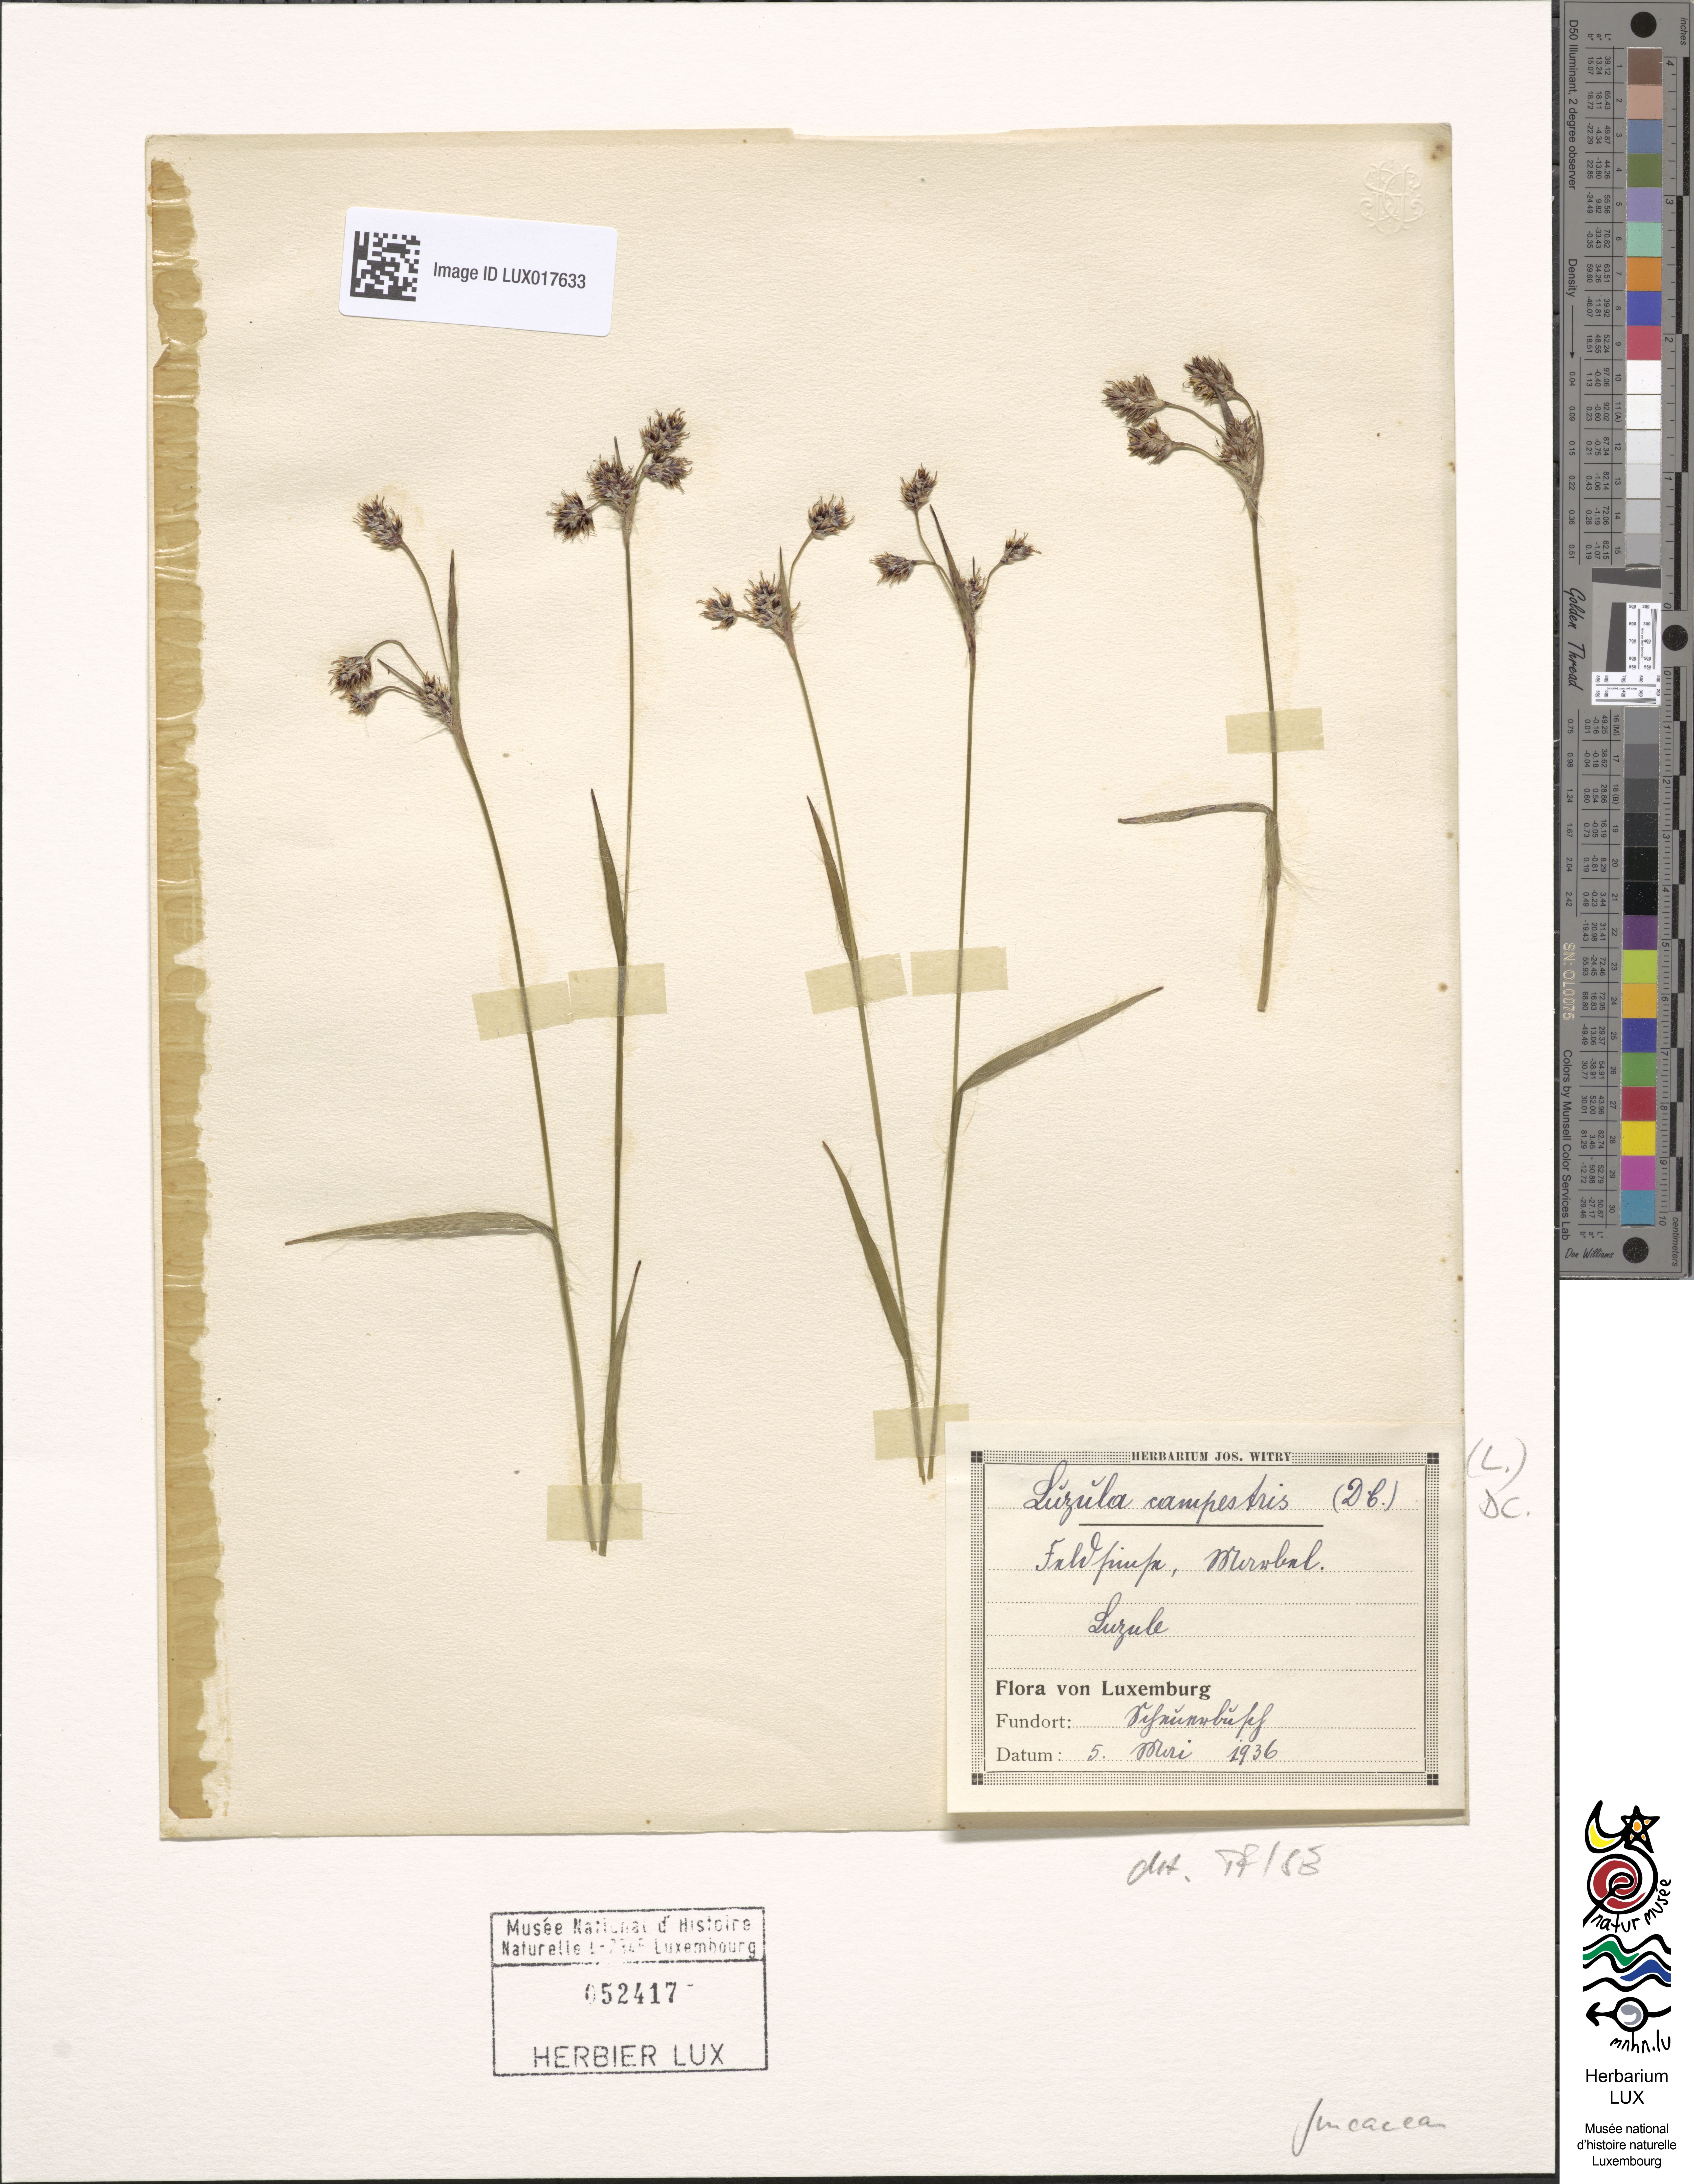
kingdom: Plantae
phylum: Tracheophyta
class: Liliopsida
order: Poales
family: Juncaceae
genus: Luzula
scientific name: Luzula campestris
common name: Field wood-rush
